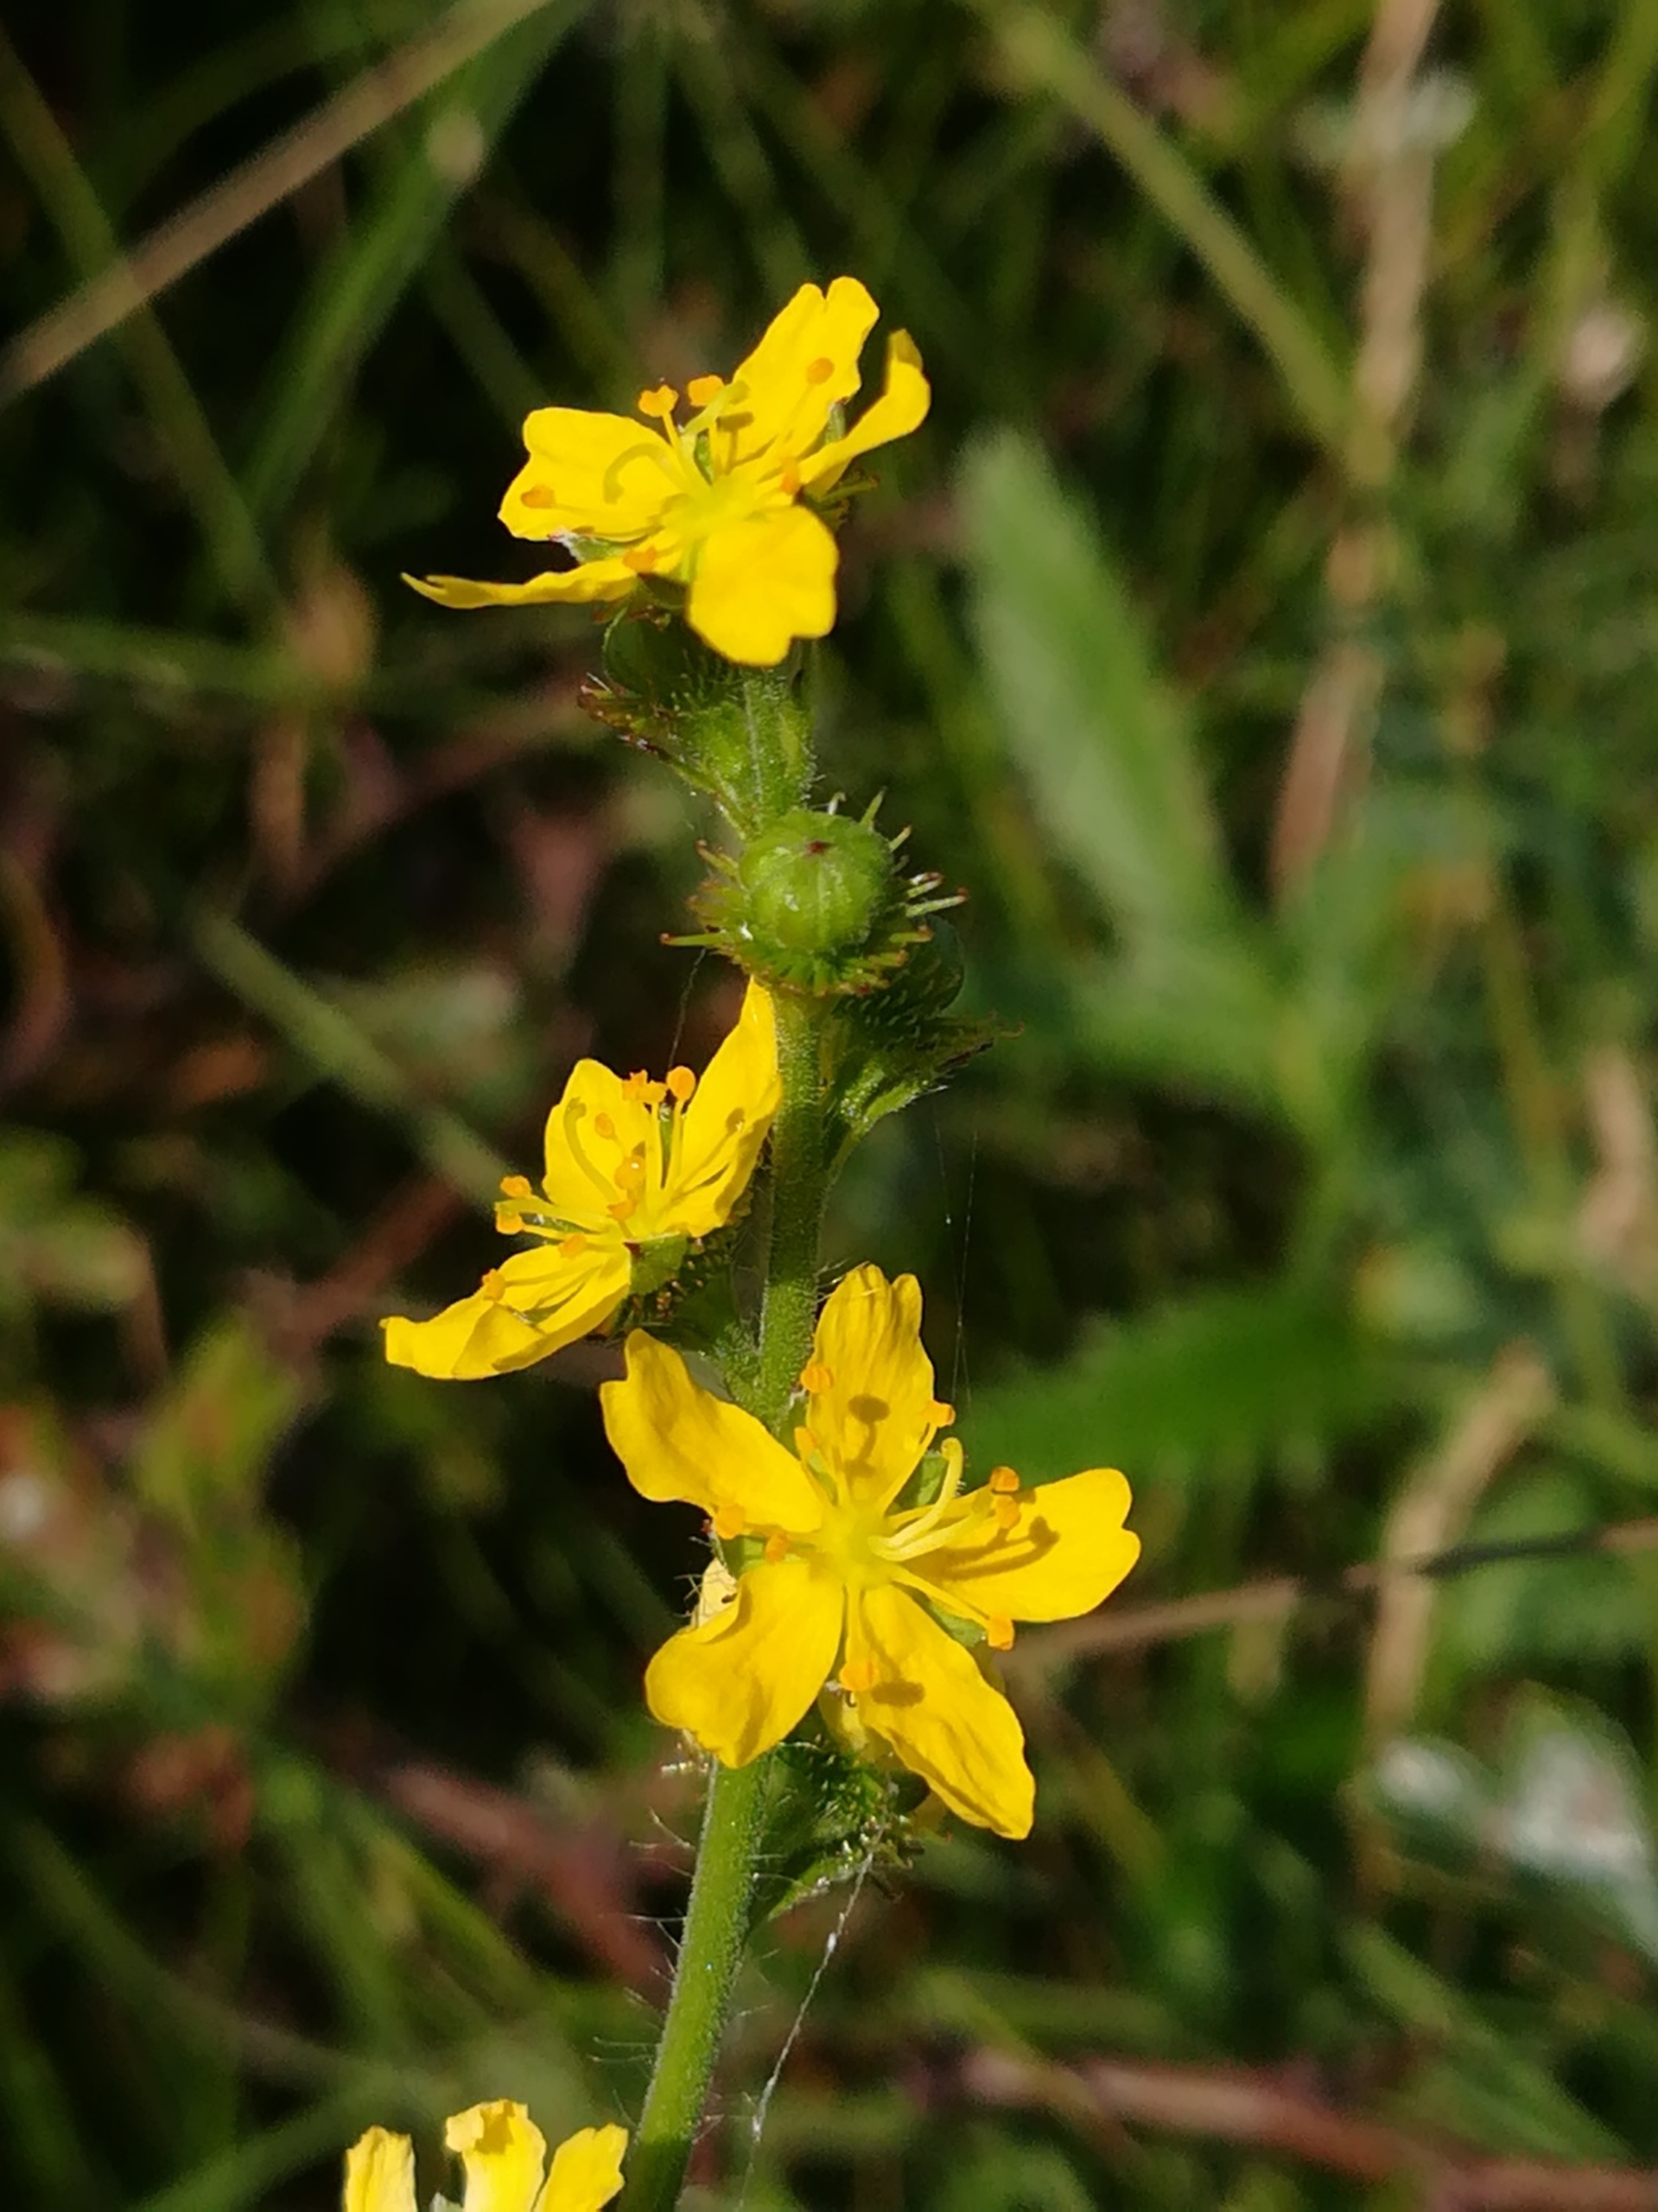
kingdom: Plantae
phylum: Tracheophyta
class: Magnoliopsida
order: Rosales
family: Rosaceae
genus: Agrimonia
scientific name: Agrimonia procera
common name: Vellugtende agermåne
